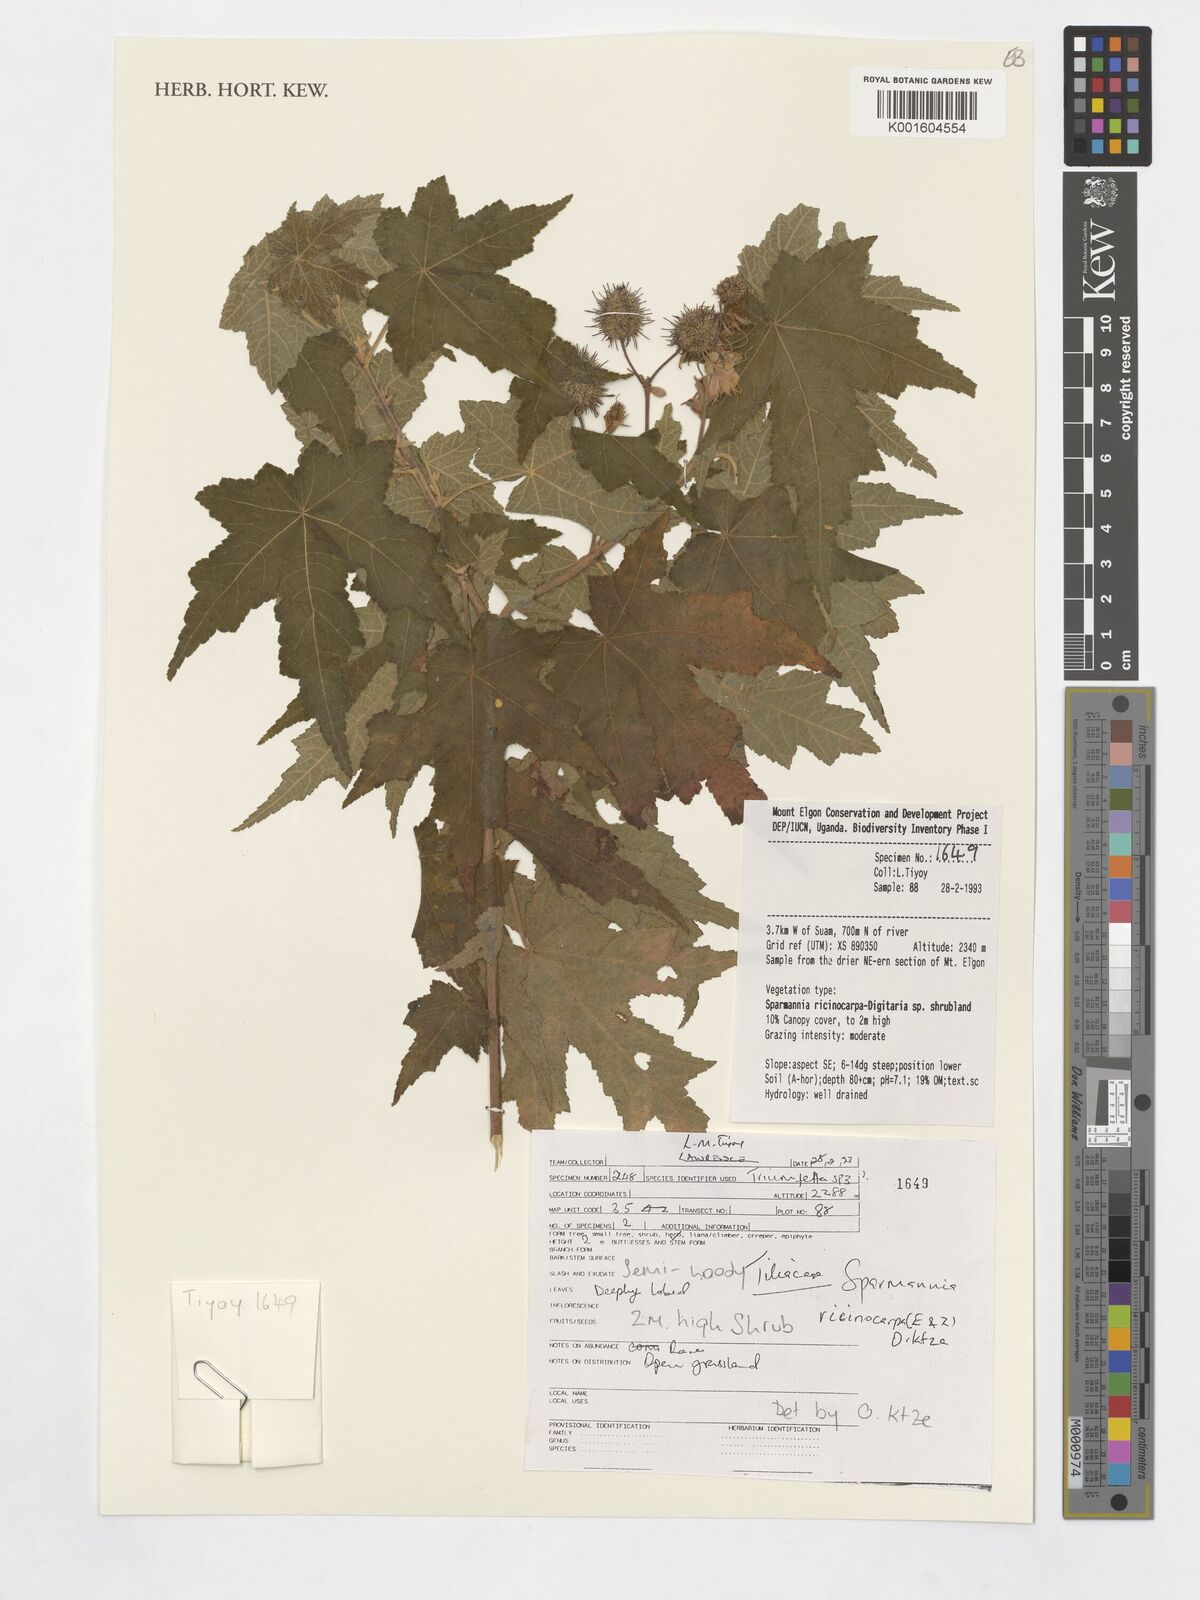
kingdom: Plantae
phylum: Tracheophyta
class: Magnoliopsida
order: Malvales
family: Malvaceae
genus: Sparmannia
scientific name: Sparmannia
